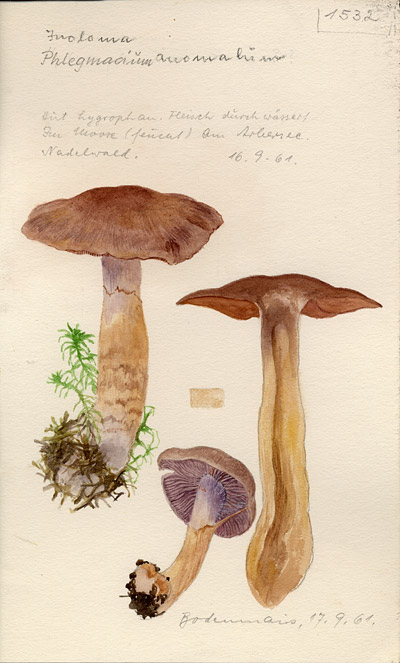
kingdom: Fungi
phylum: Basidiomycota
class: Agaricomycetes
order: Agaricales
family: Cortinariaceae
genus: Cortinarius
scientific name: Cortinarius anomalus
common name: Variable webcap
